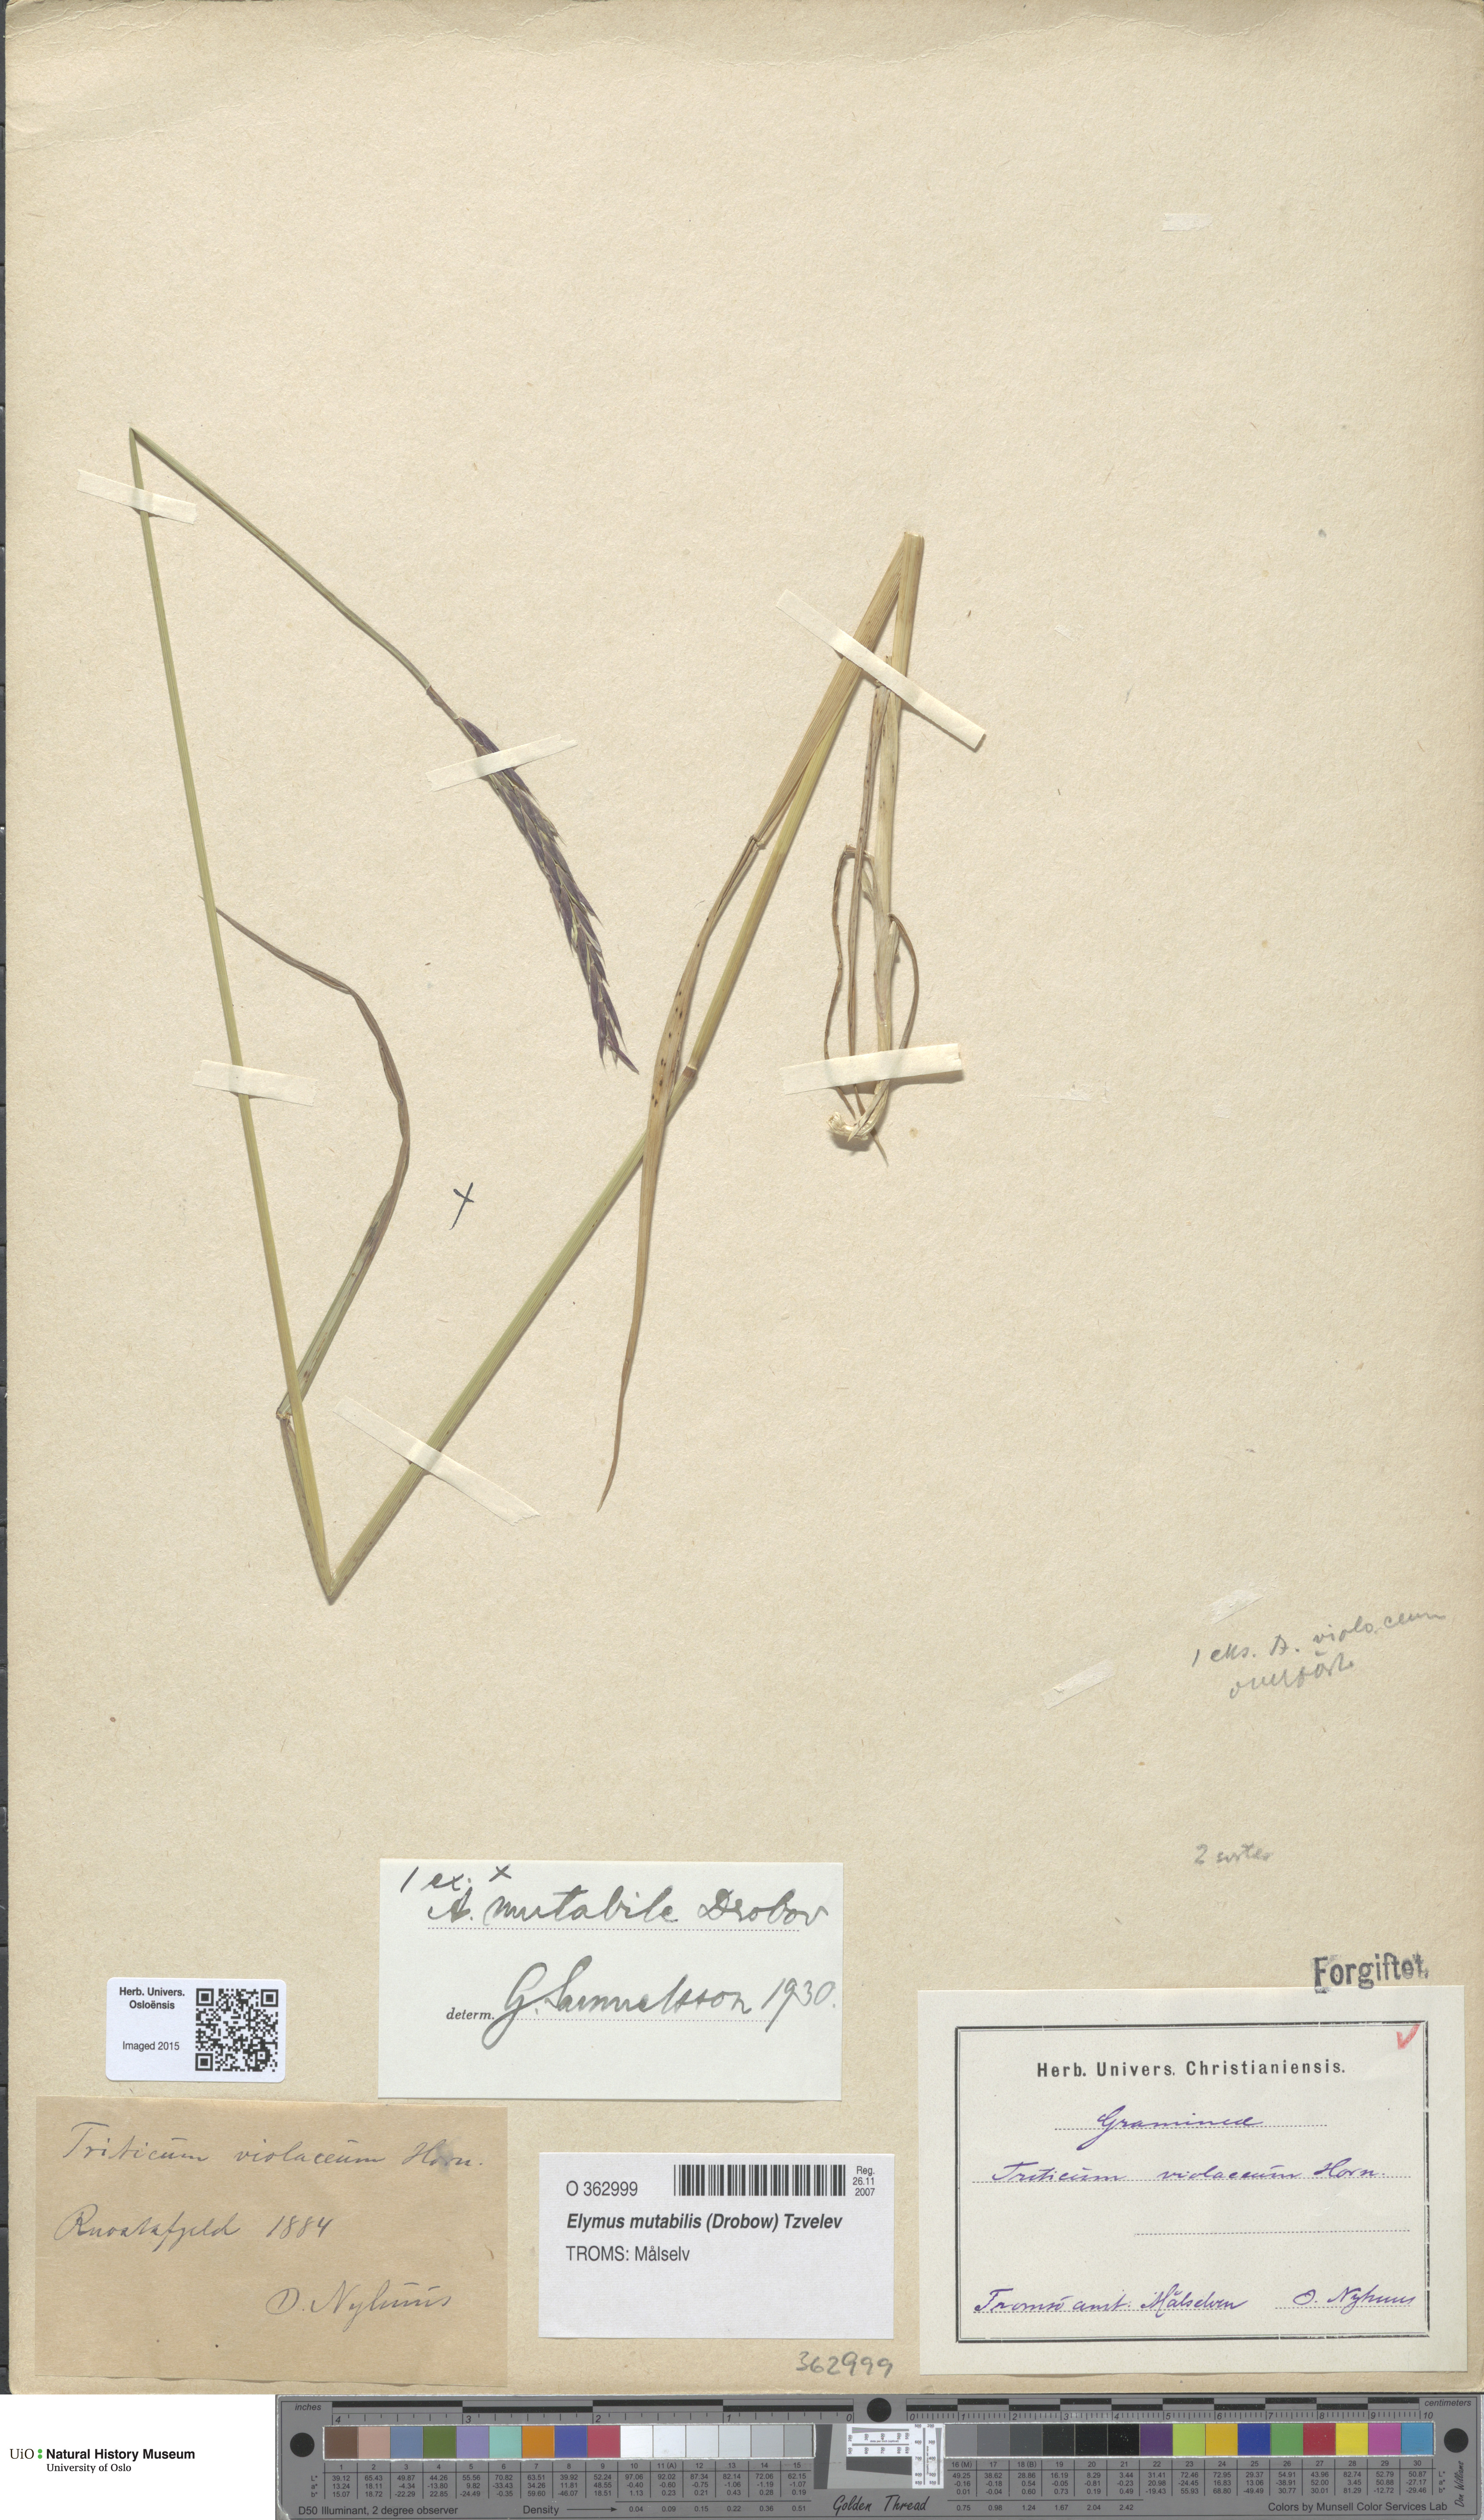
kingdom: Plantae
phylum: Tracheophyta
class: Liliopsida
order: Poales
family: Poaceae
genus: Elymus
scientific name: Elymus mutabilis
